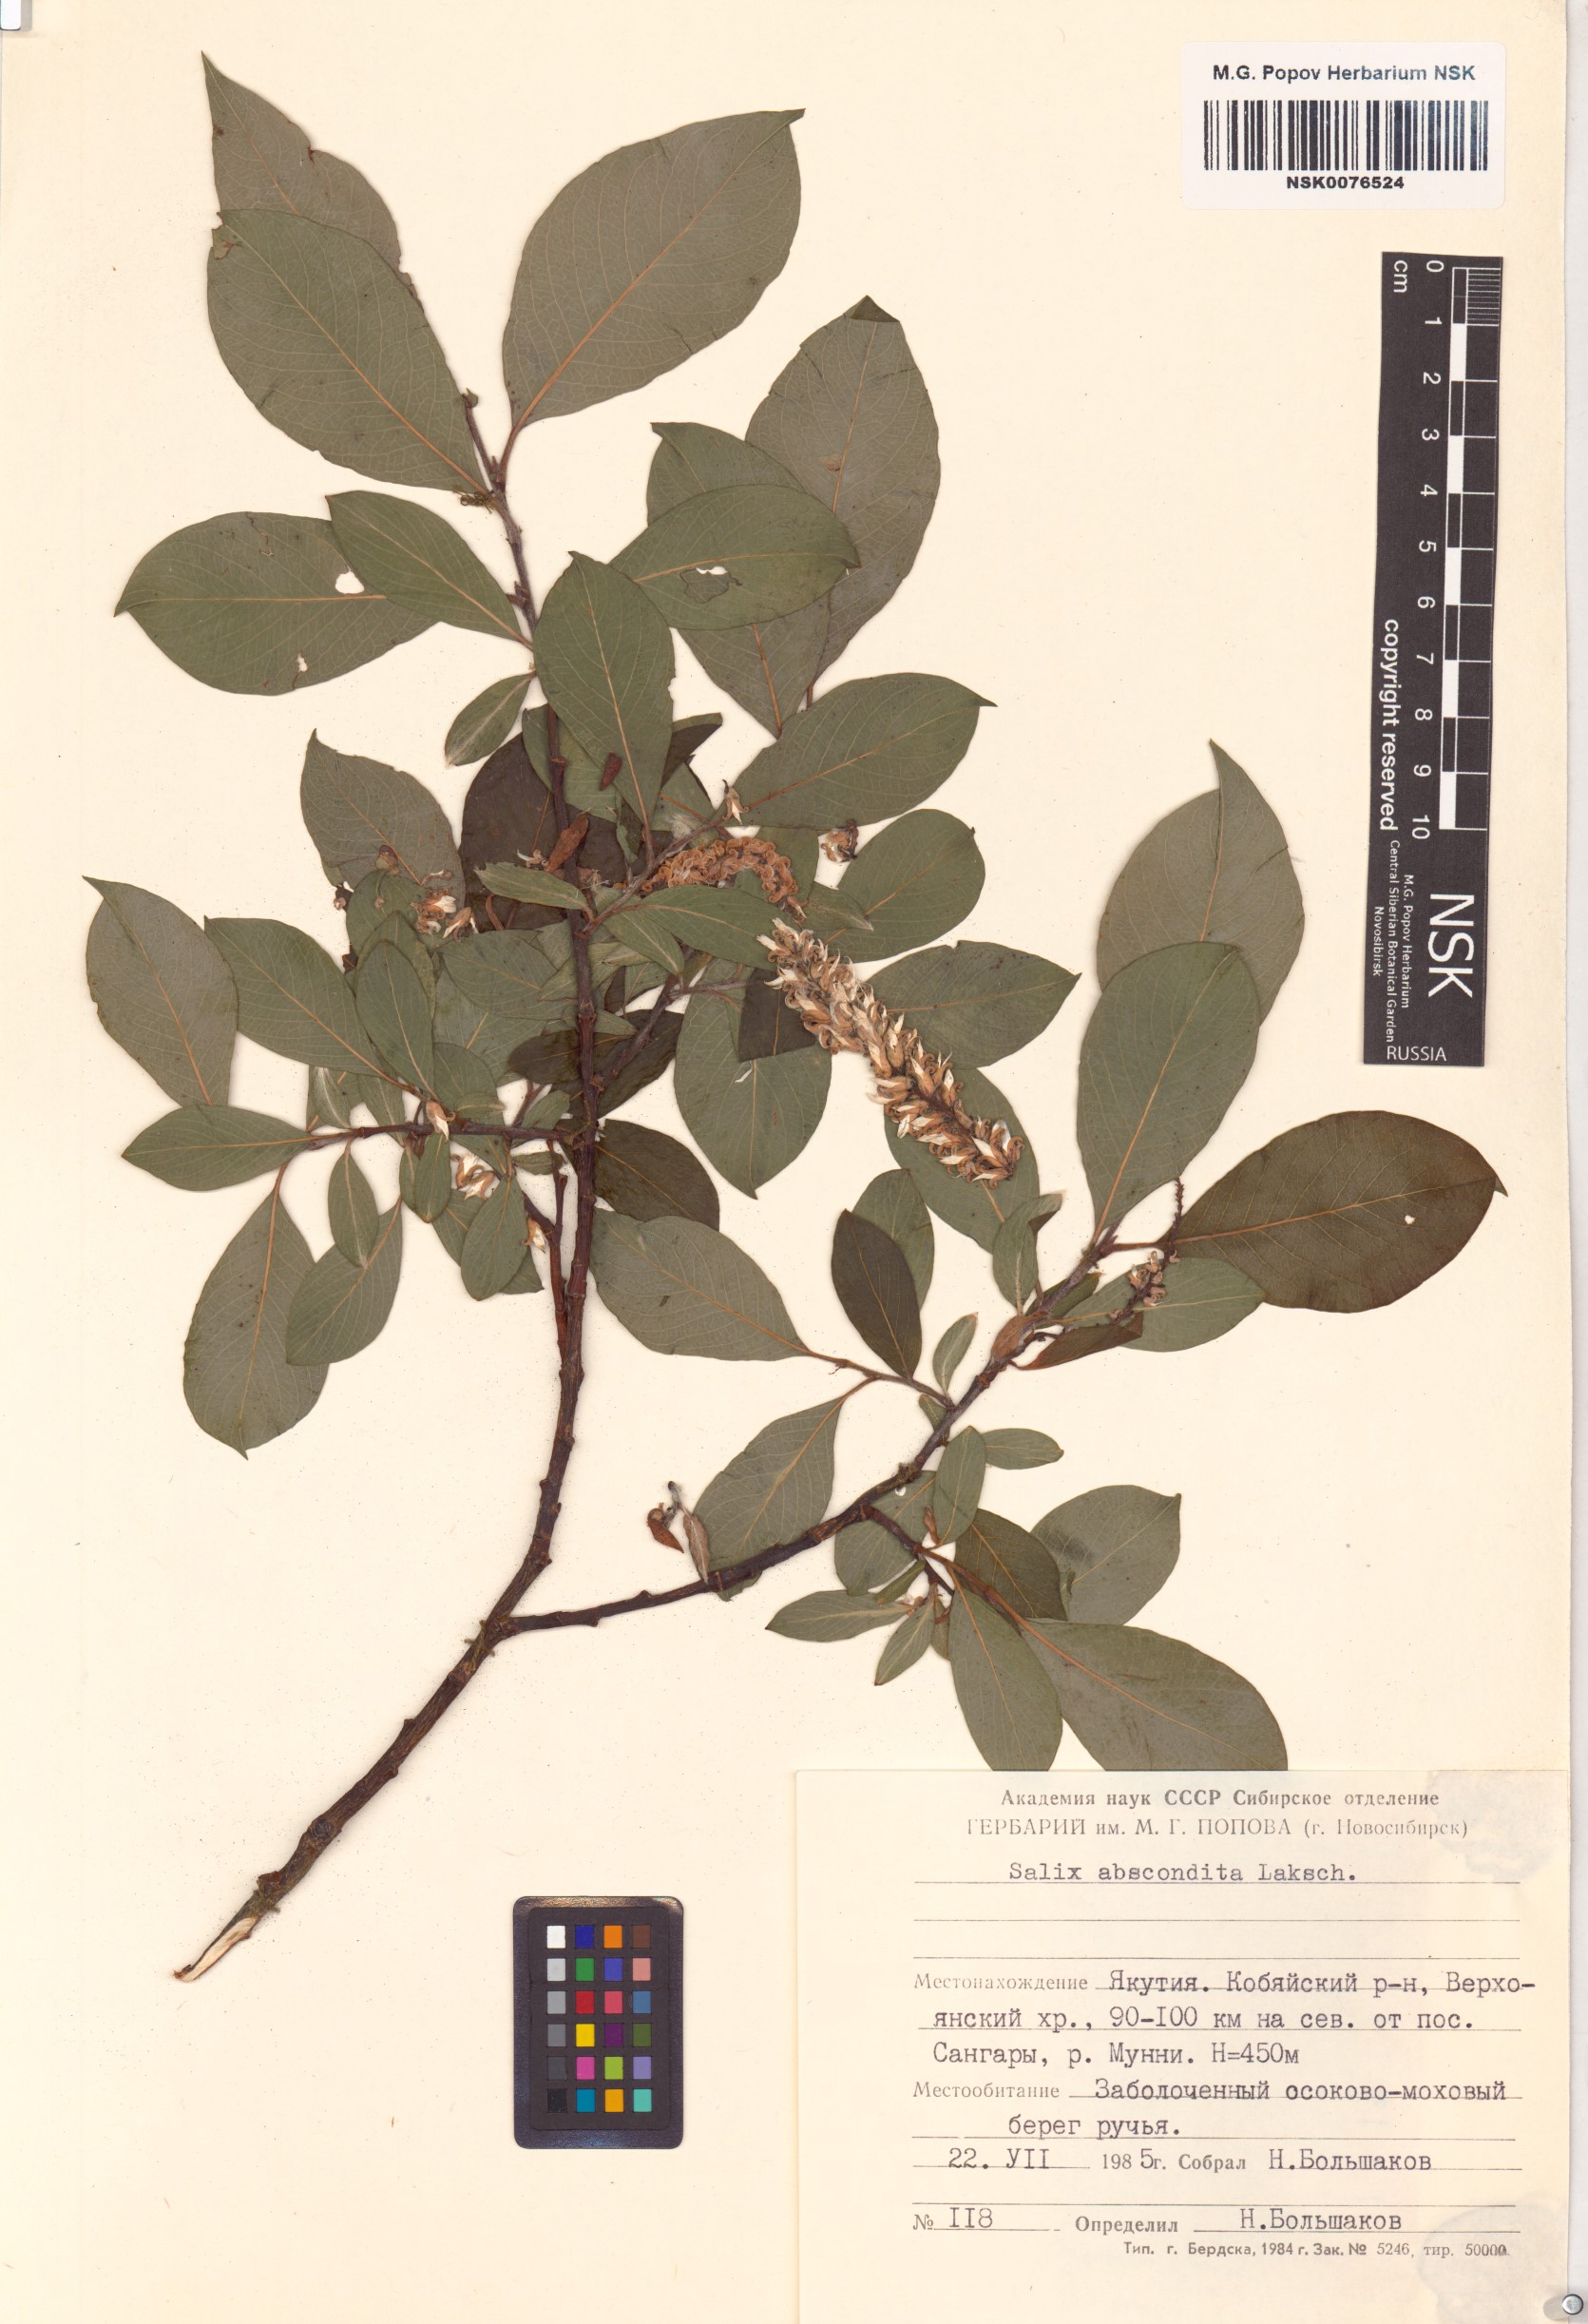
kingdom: Plantae
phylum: Tracheophyta
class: Magnoliopsida
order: Malpighiales
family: Salicaceae
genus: Salix
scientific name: Salix abscondita
